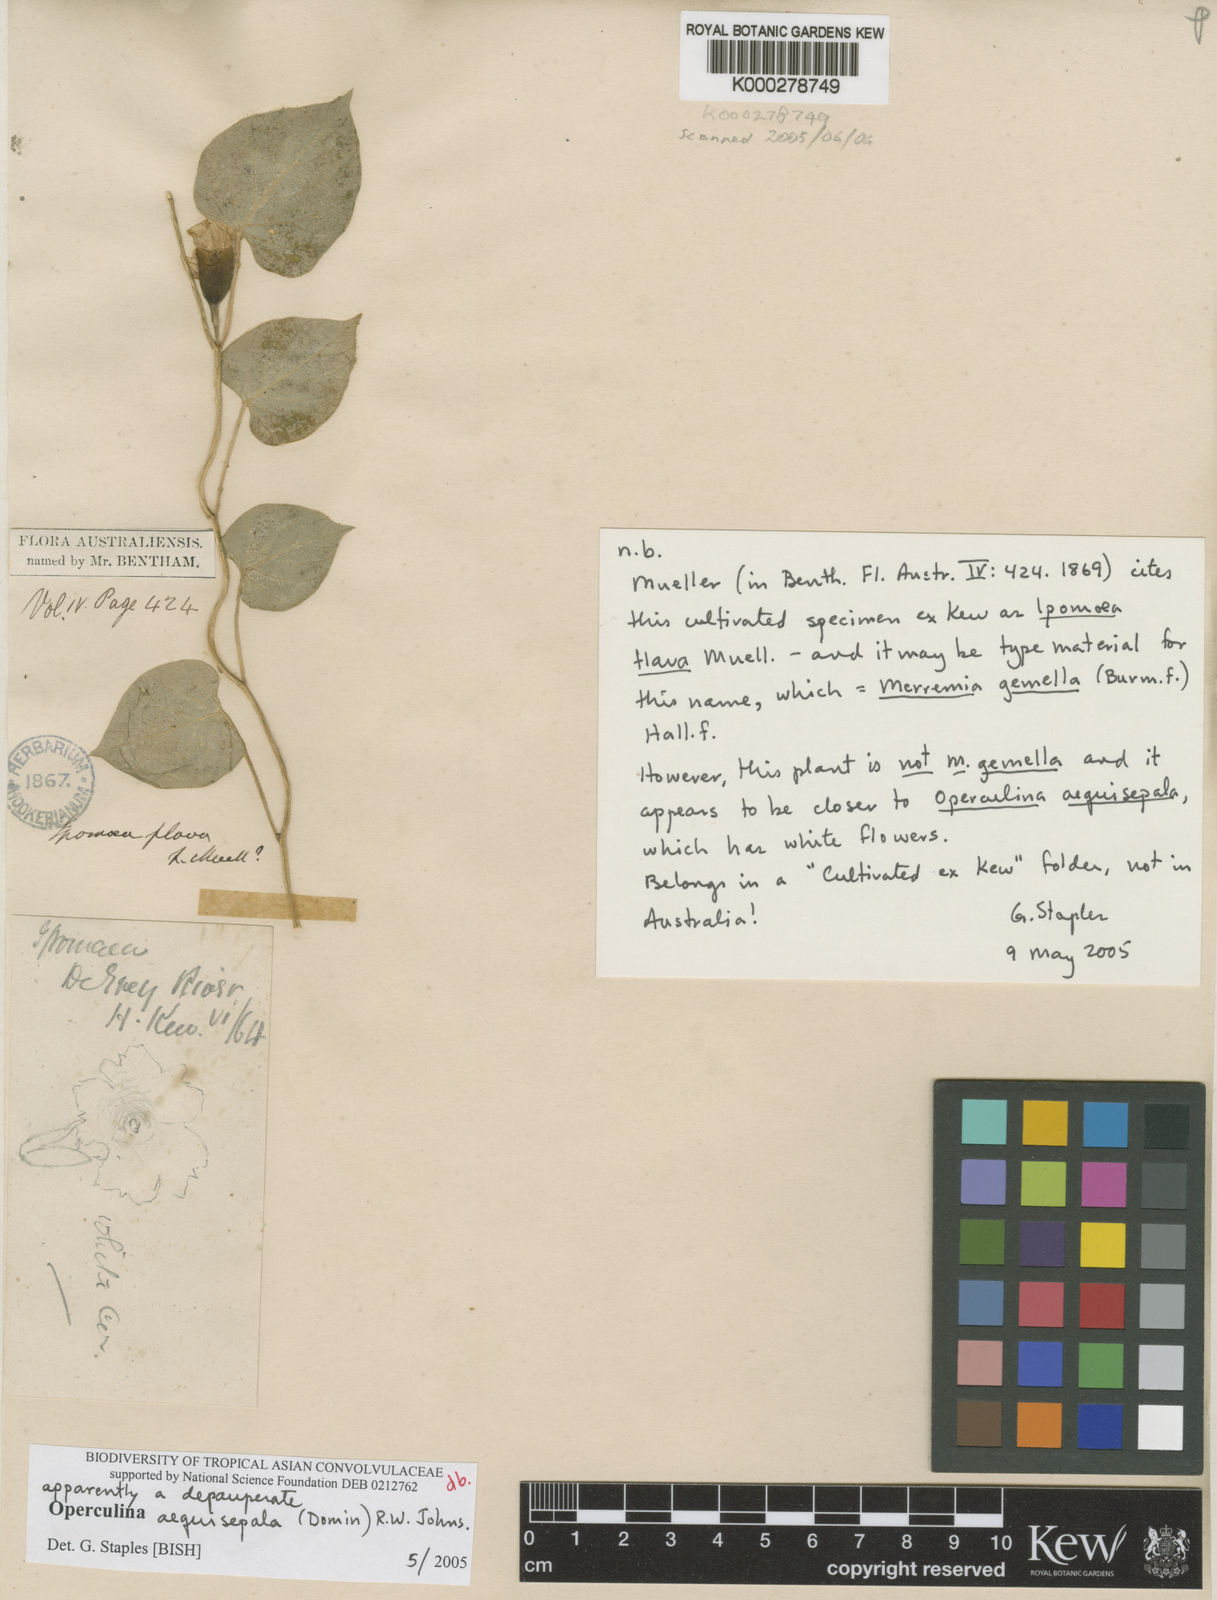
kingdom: Plantae
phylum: Tracheophyta
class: Magnoliopsida
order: Solanales
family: Convolvulaceae
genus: Operculina
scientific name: Operculina aequisepala
